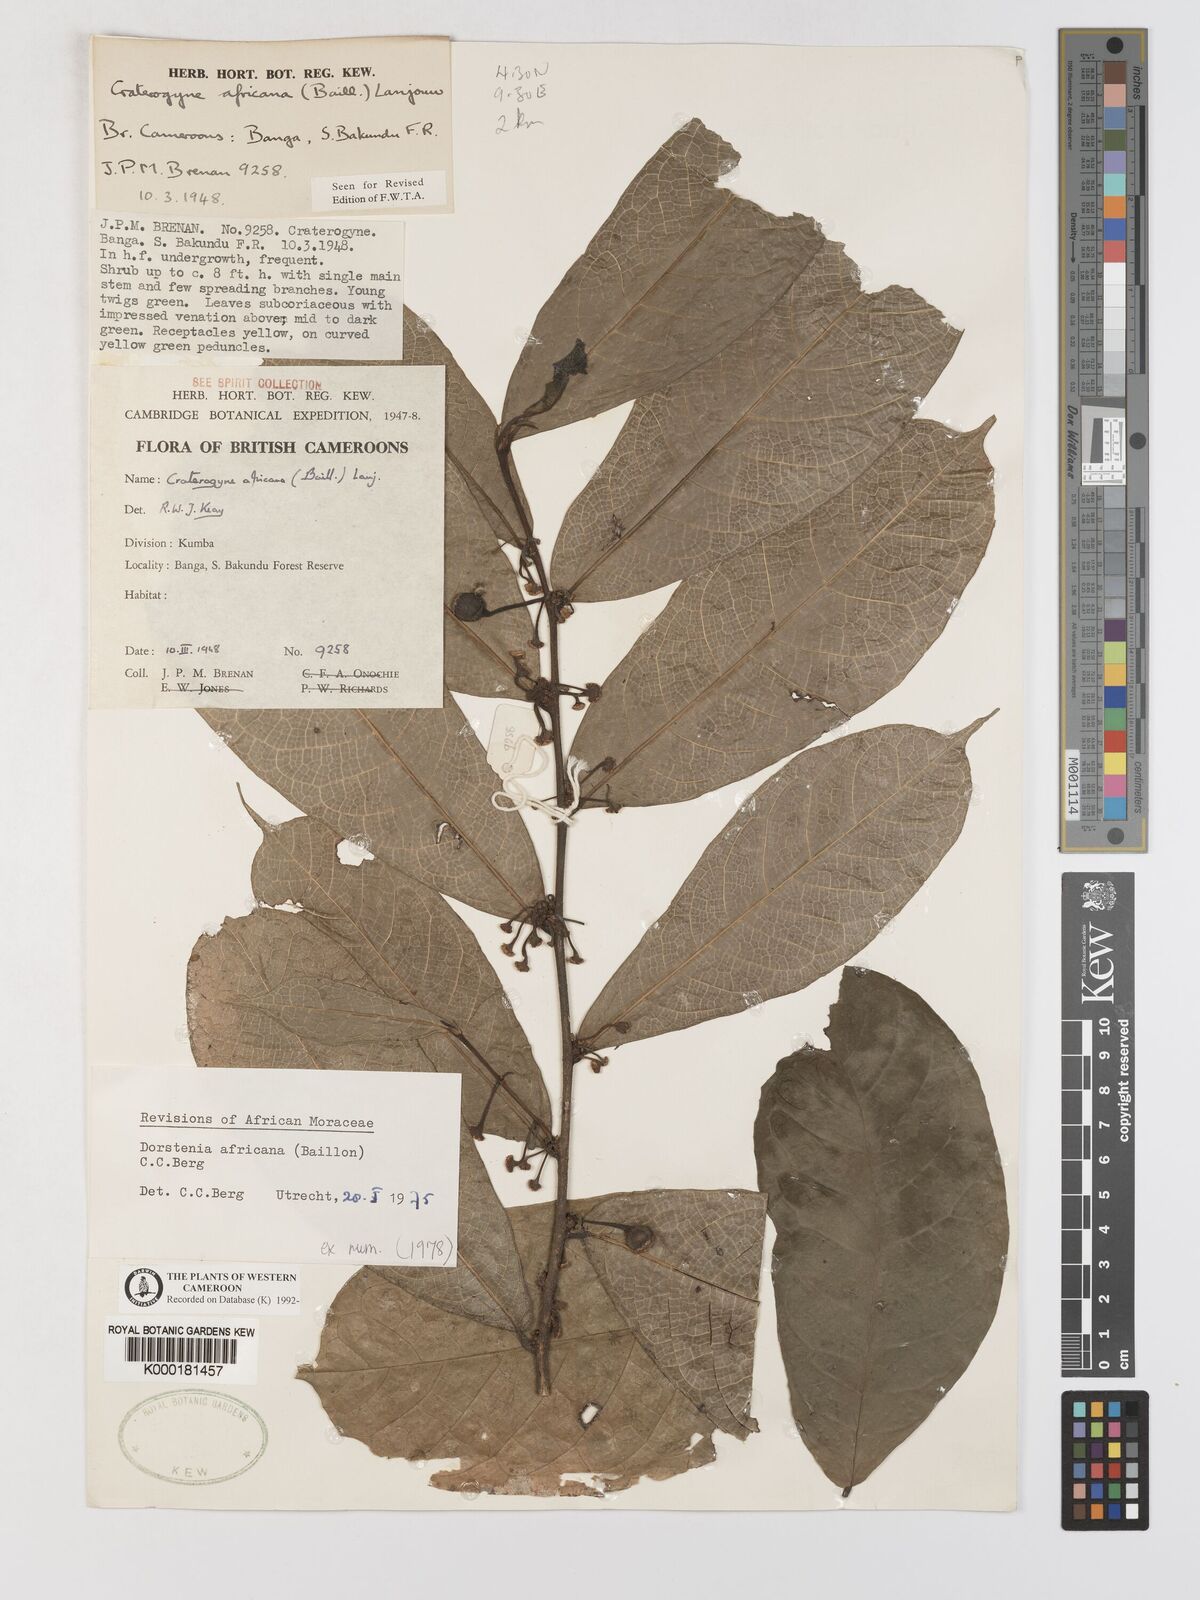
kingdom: Plantae
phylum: Tracheophyta
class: Magnoliopsida
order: Rosales
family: Moraceae
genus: Dorstenia
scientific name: Dorstenia africana
